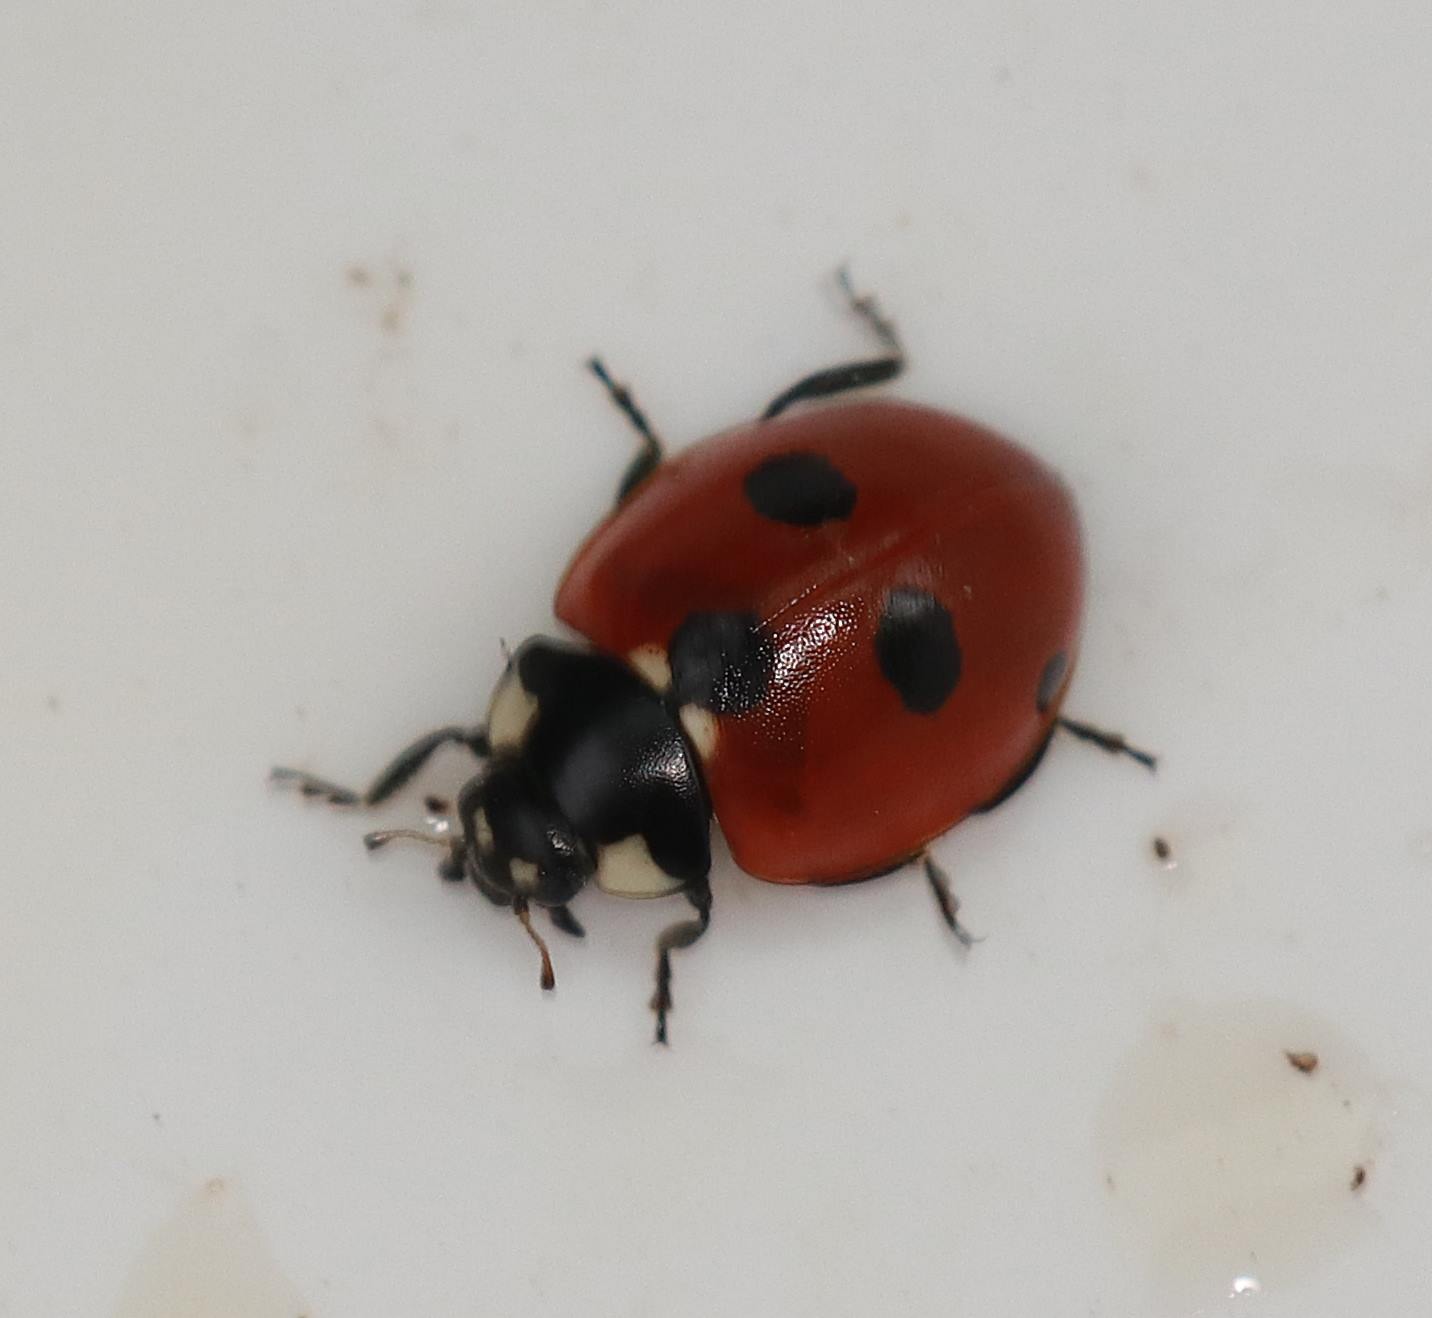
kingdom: Animalia
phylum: Arthropoda
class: Insecta
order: Coleoptera
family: Coccinellidae
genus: Coccinella
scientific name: Coccinella quinquepunctata
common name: Femplettet mariehøne
